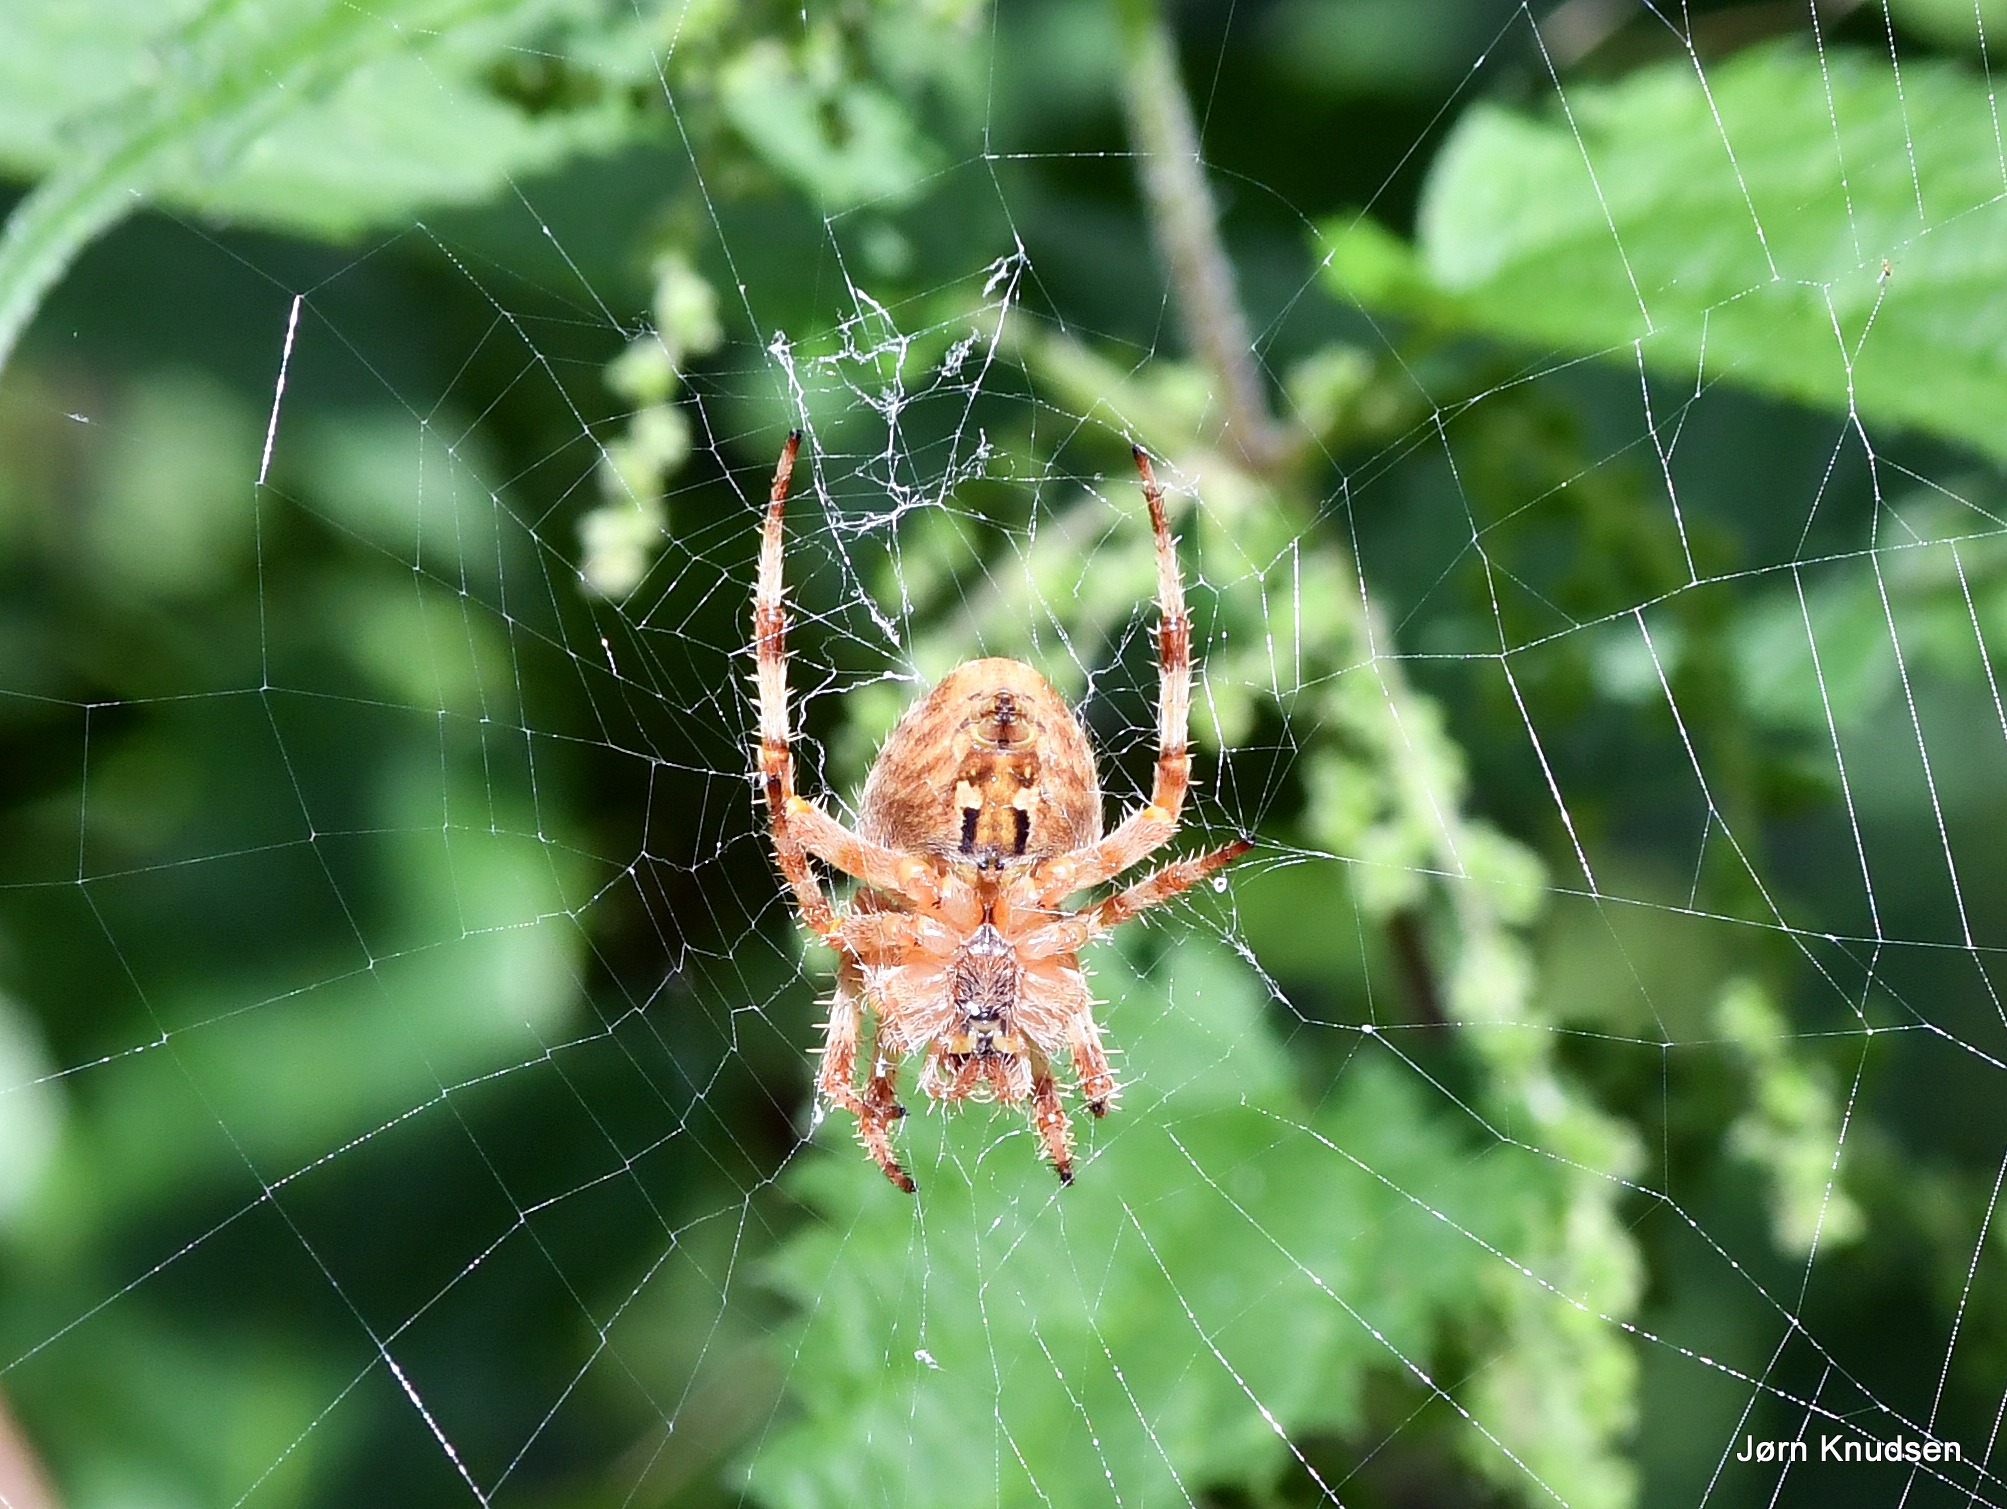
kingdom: Animalia
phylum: Arthropoda
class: Arachnida
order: Araneae
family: Araneidae
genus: Araneus
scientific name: Araneus diadematus
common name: Korsedderkop
